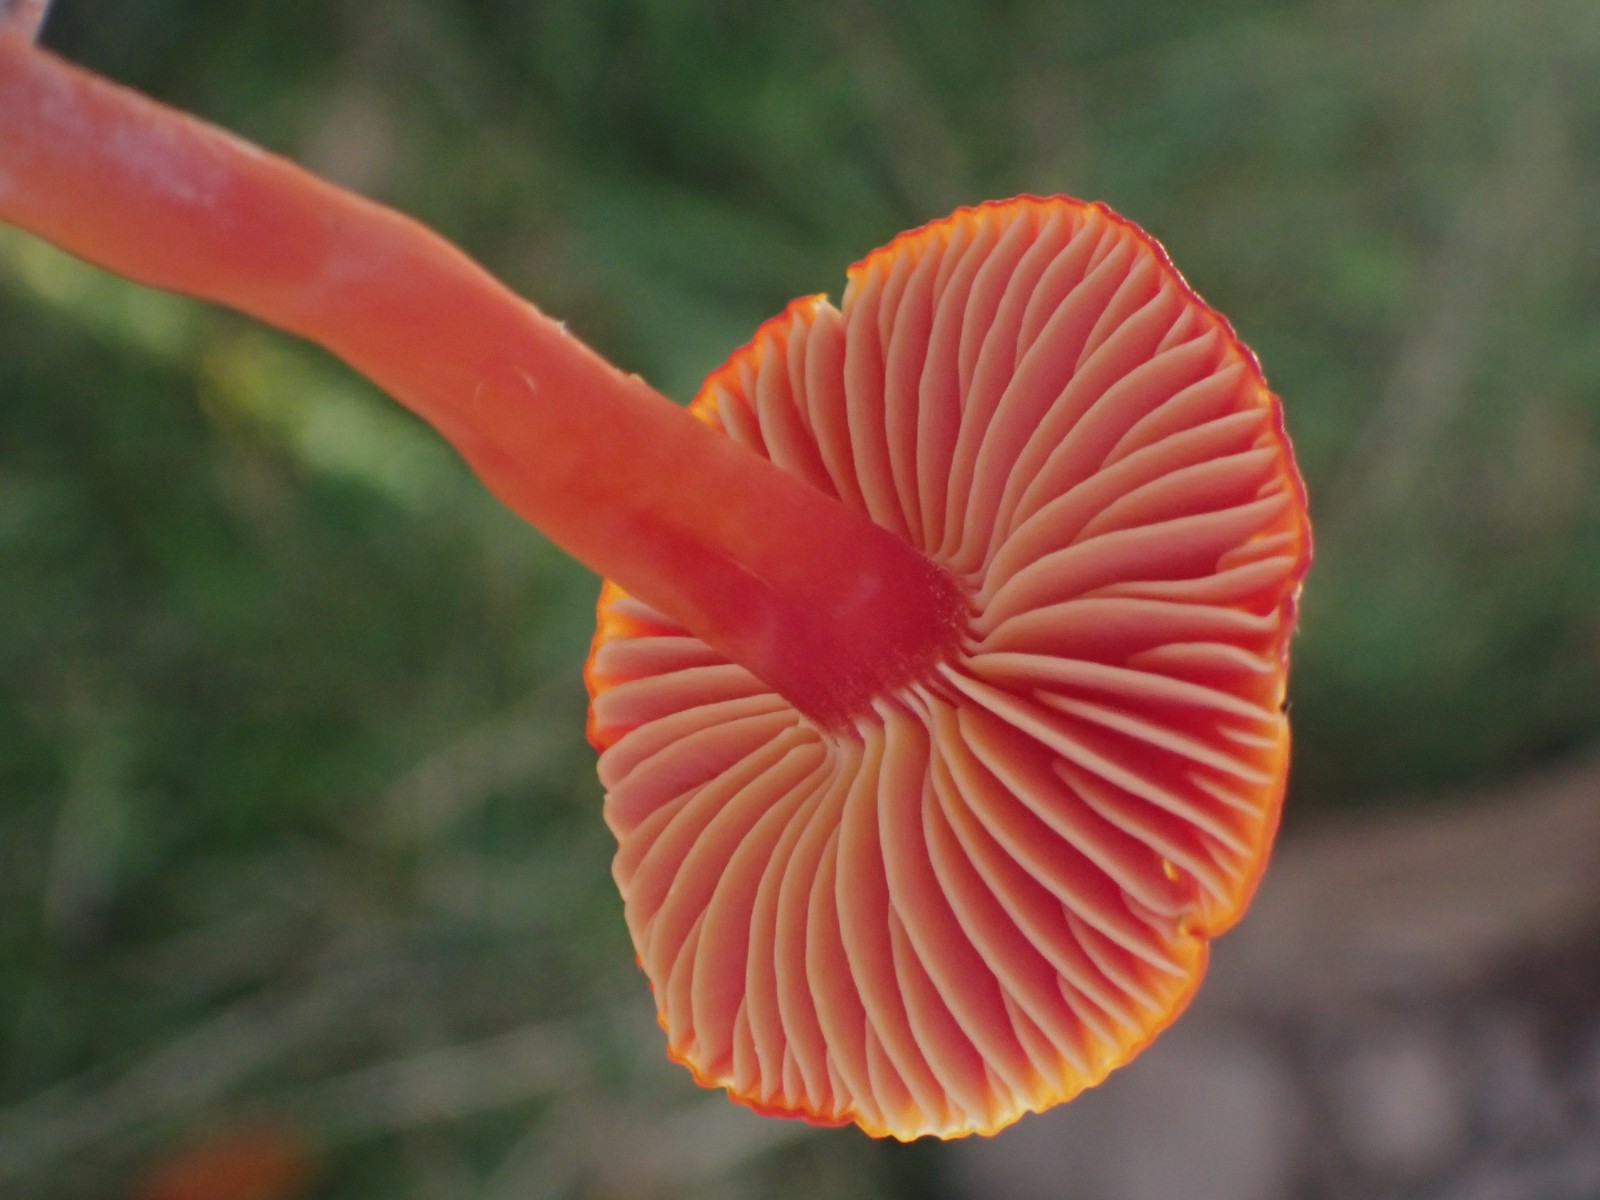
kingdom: Fungi
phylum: Basidiomycota
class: Agaricomycetes
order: Agaricales
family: Hygrophoraceae
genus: Hygrocybe
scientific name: Hygrocybe coccinea
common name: cinnober-vokshat
